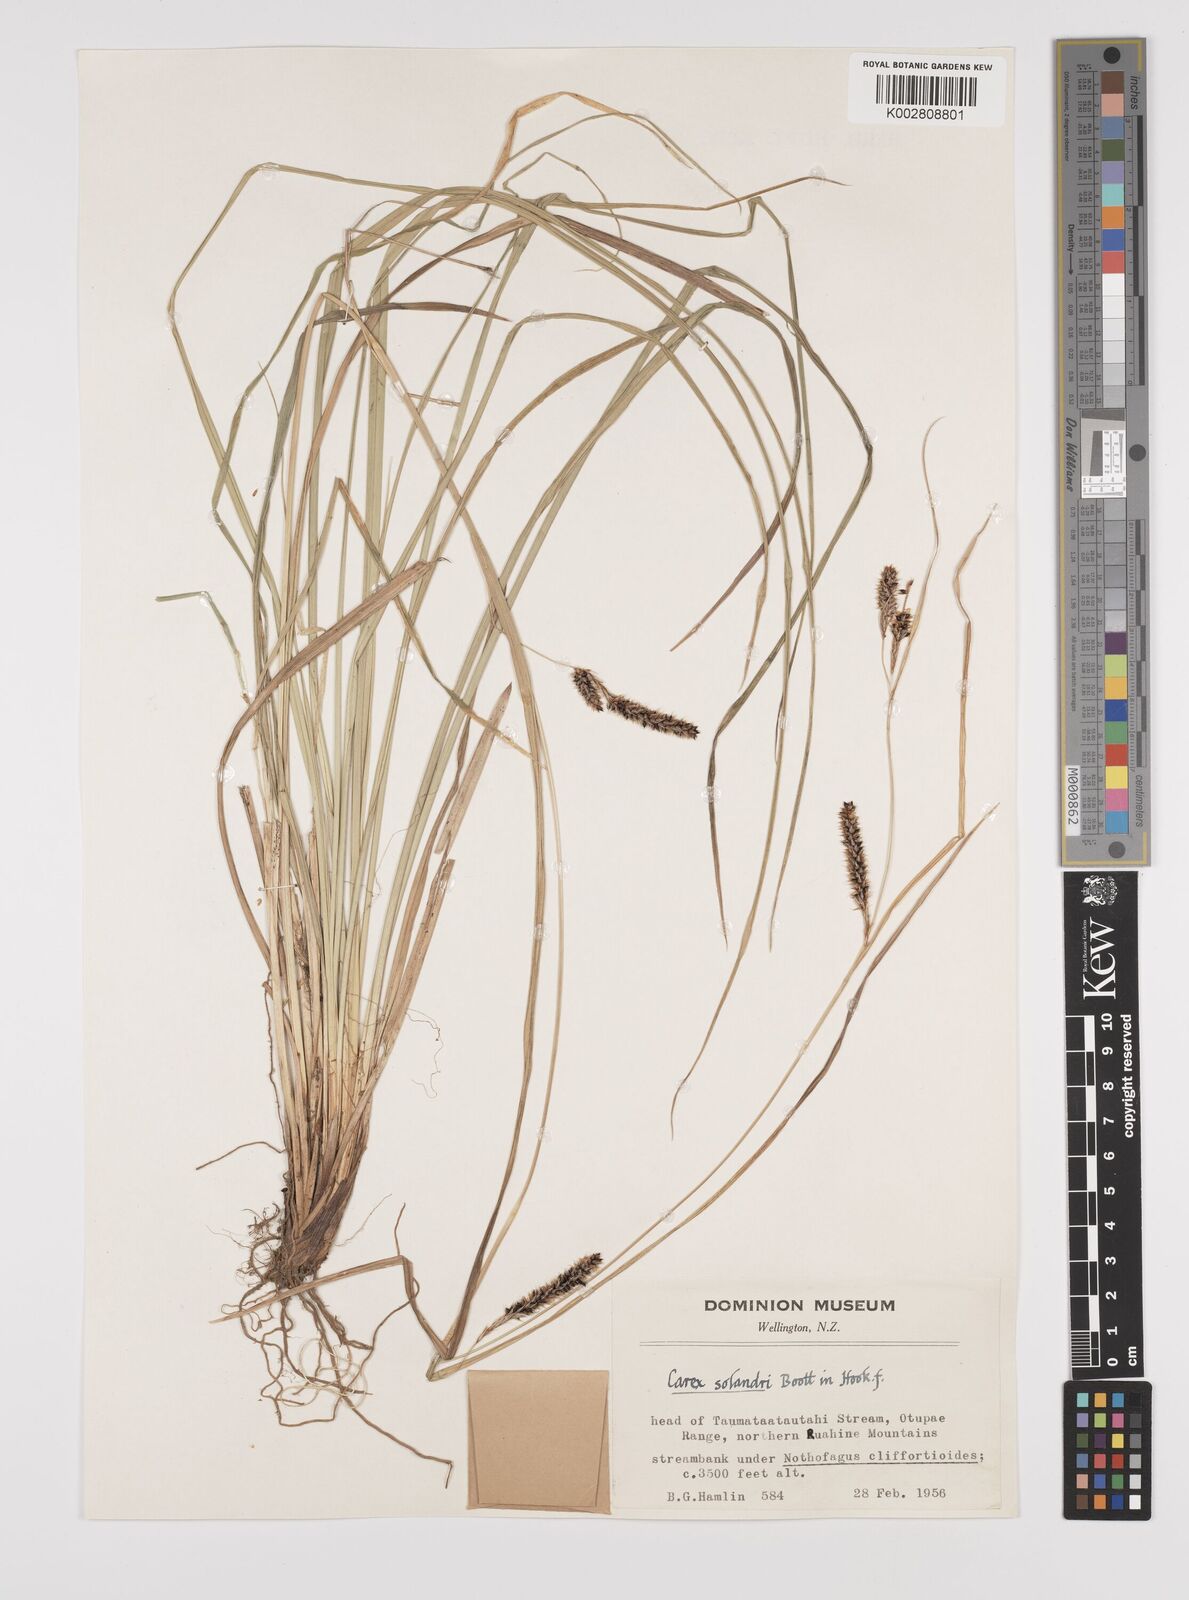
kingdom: Plantae
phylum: Tracheophyta
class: Liliopsida
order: Poales
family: Cyperaceae
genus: Carex
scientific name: Carex dissita
